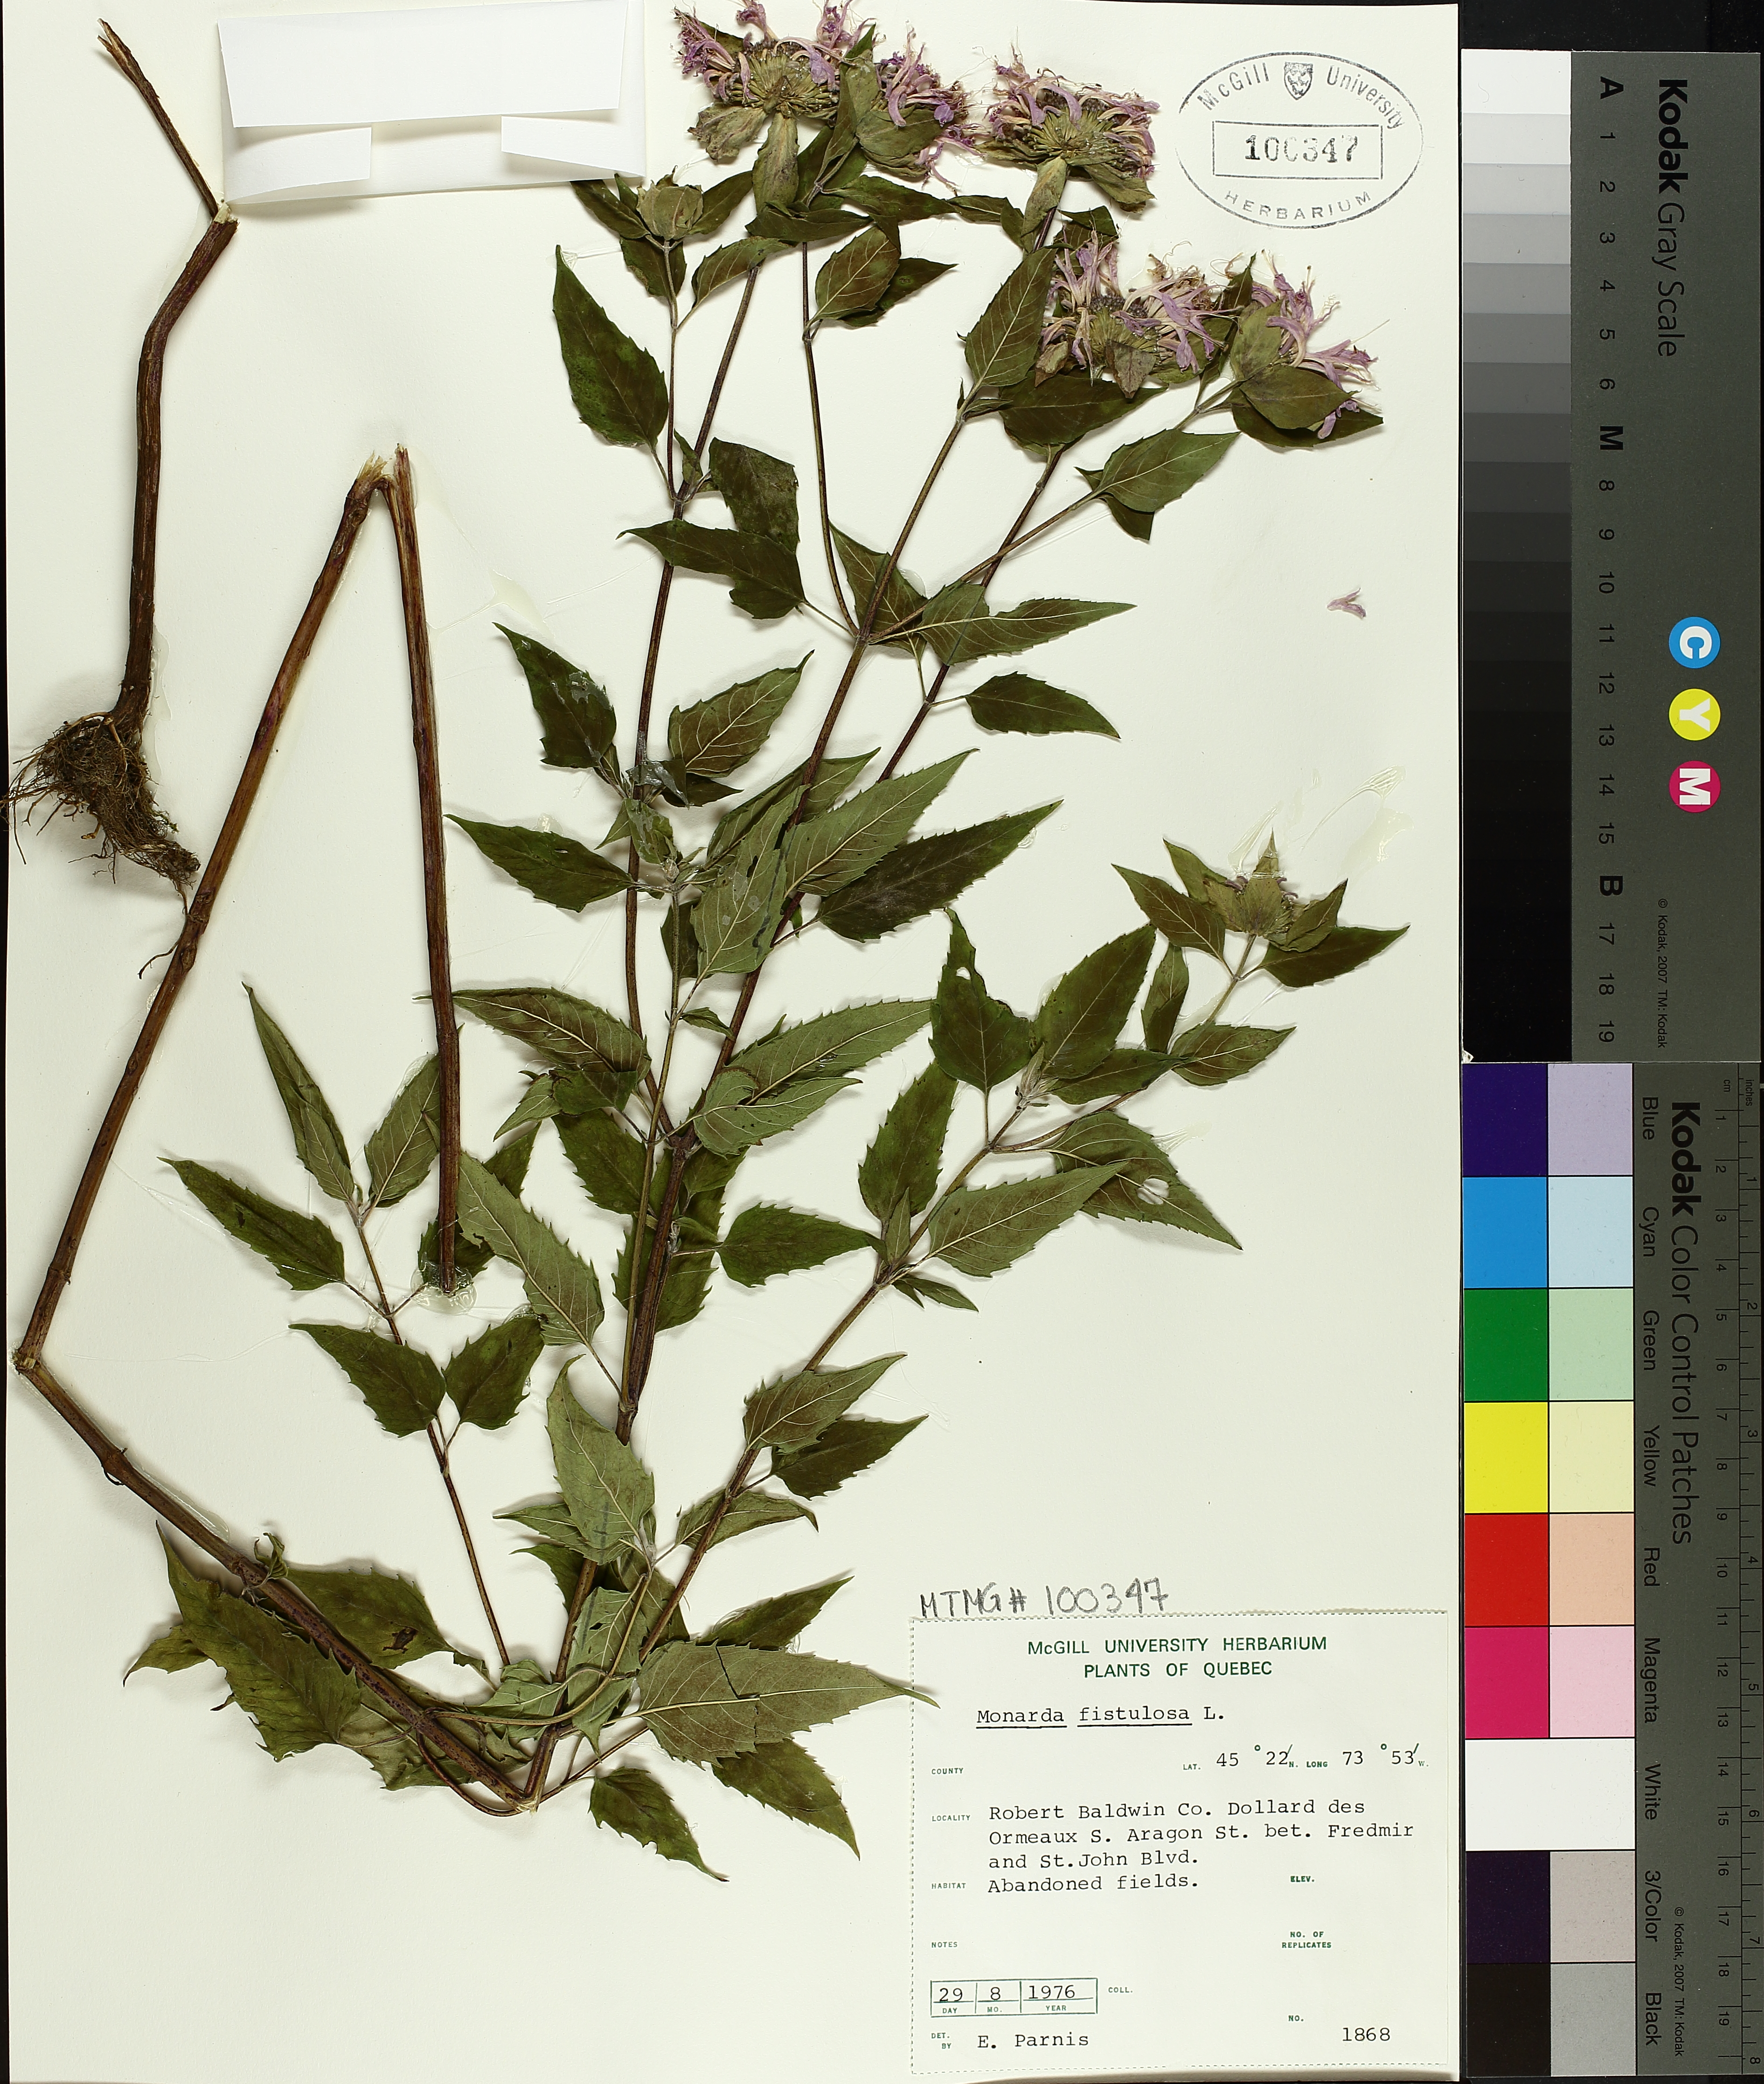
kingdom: Plantae
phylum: Tracheophyta
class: Magnoliopsida
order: Lamiales
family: Lamiaceae
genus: Monarda
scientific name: Monarda fistulosa
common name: Purple beebalm
